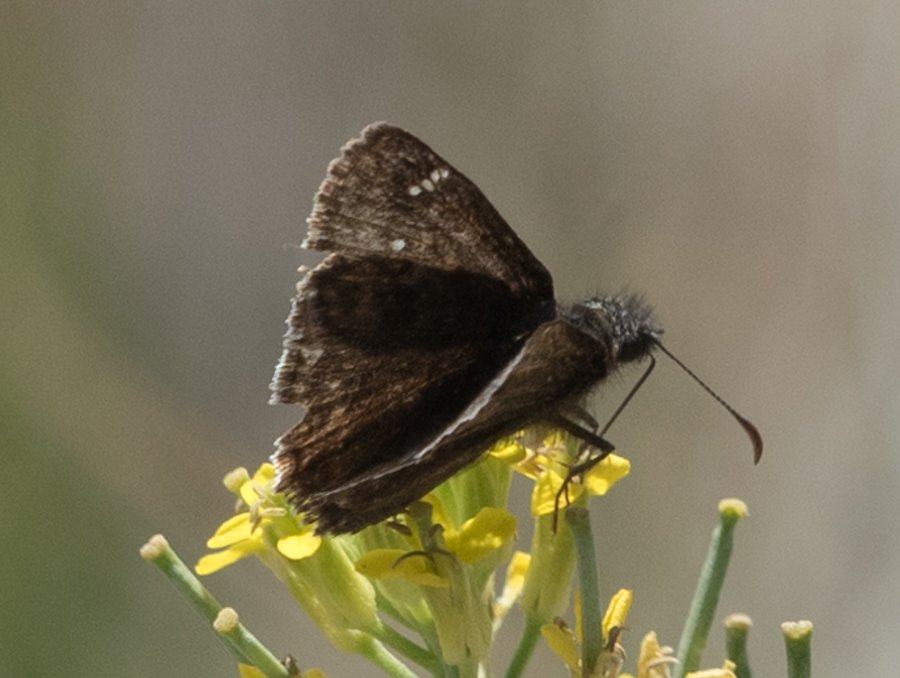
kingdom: Animalia
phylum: Arthropoda
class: Insecta
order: Lepidoptera
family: Hesperiidae
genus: Gesta
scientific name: Gesta
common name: Persius Duskywing
